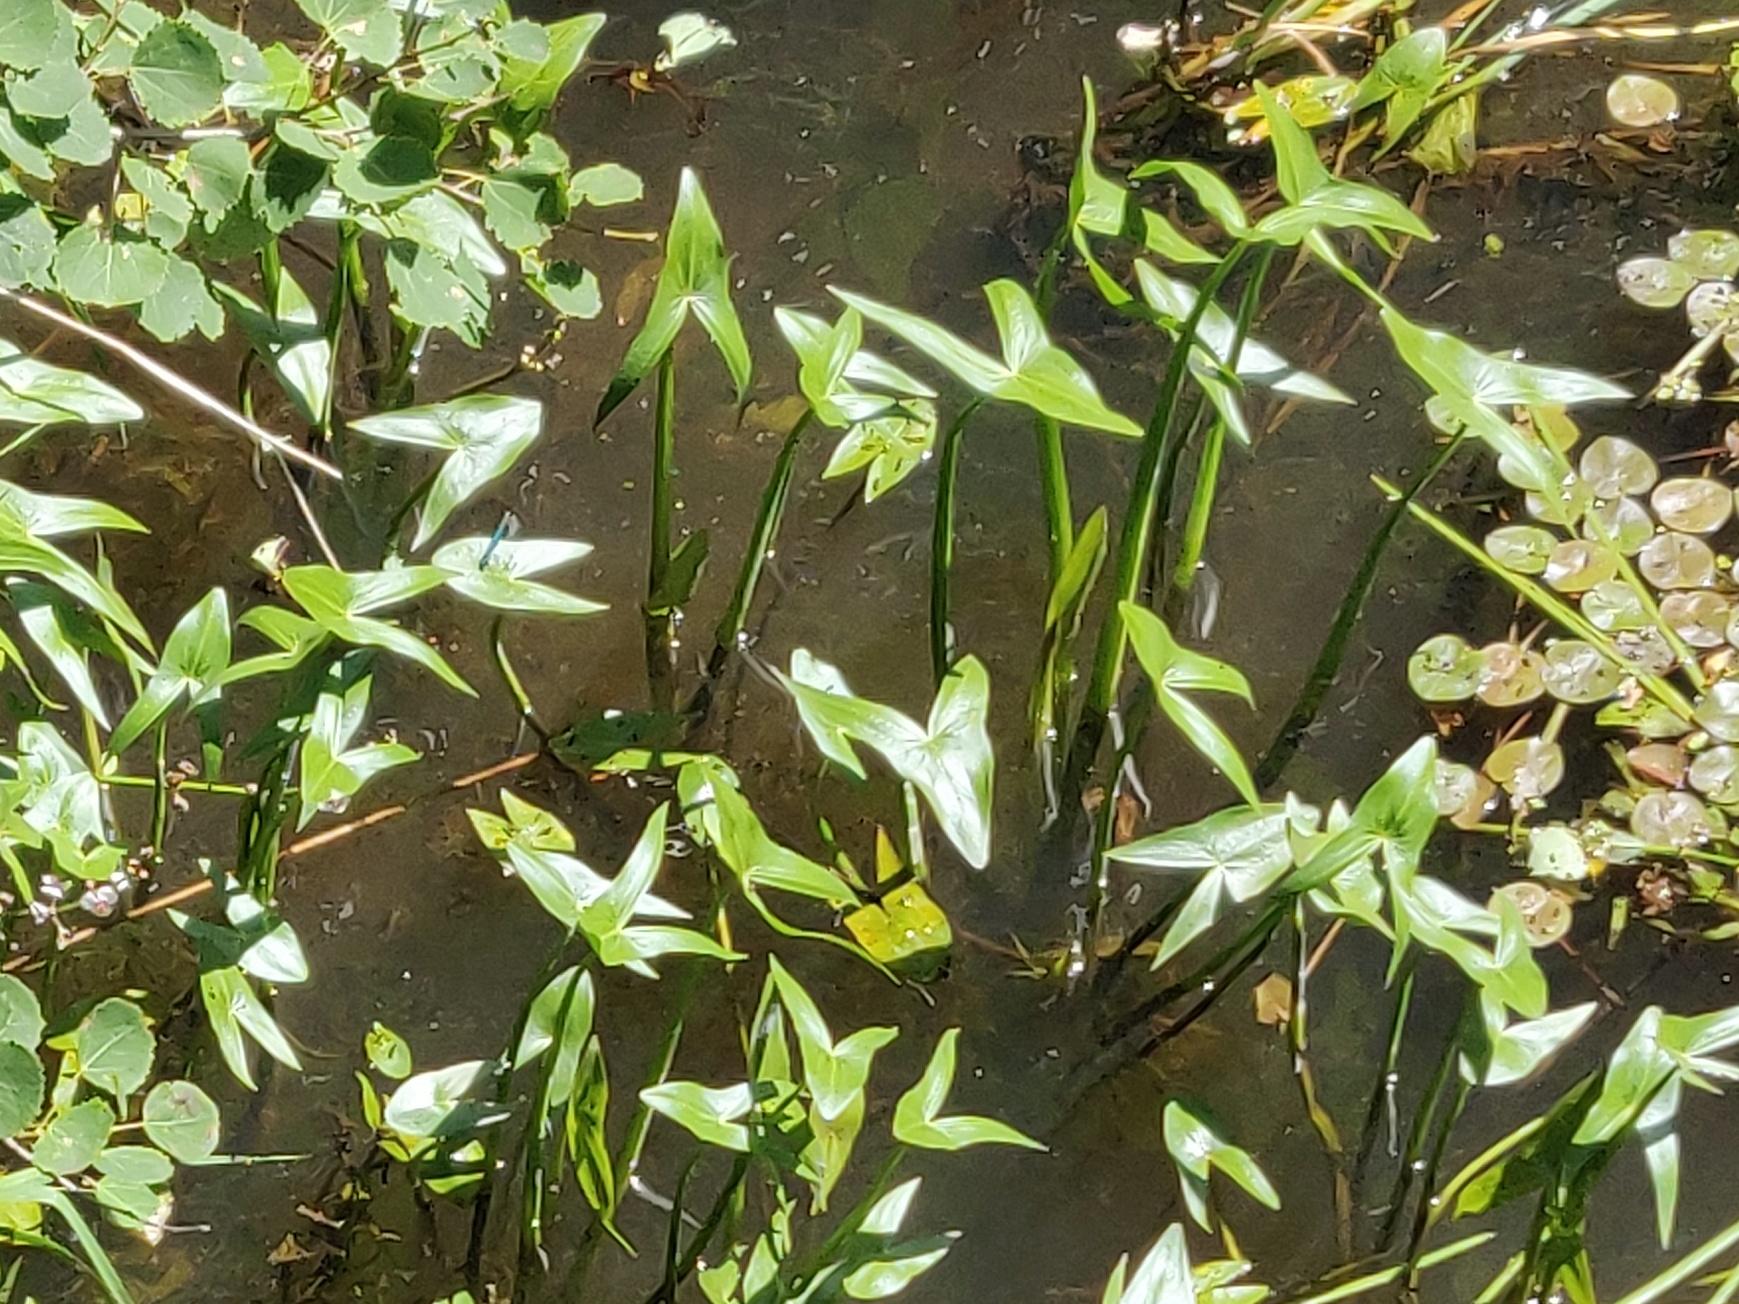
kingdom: Plantae
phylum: Tracheophyta
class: Liliopsida
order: Alismatales
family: Alismataceae
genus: Sagittaria
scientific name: Sagittaria sagittifolia
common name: Pilblad
